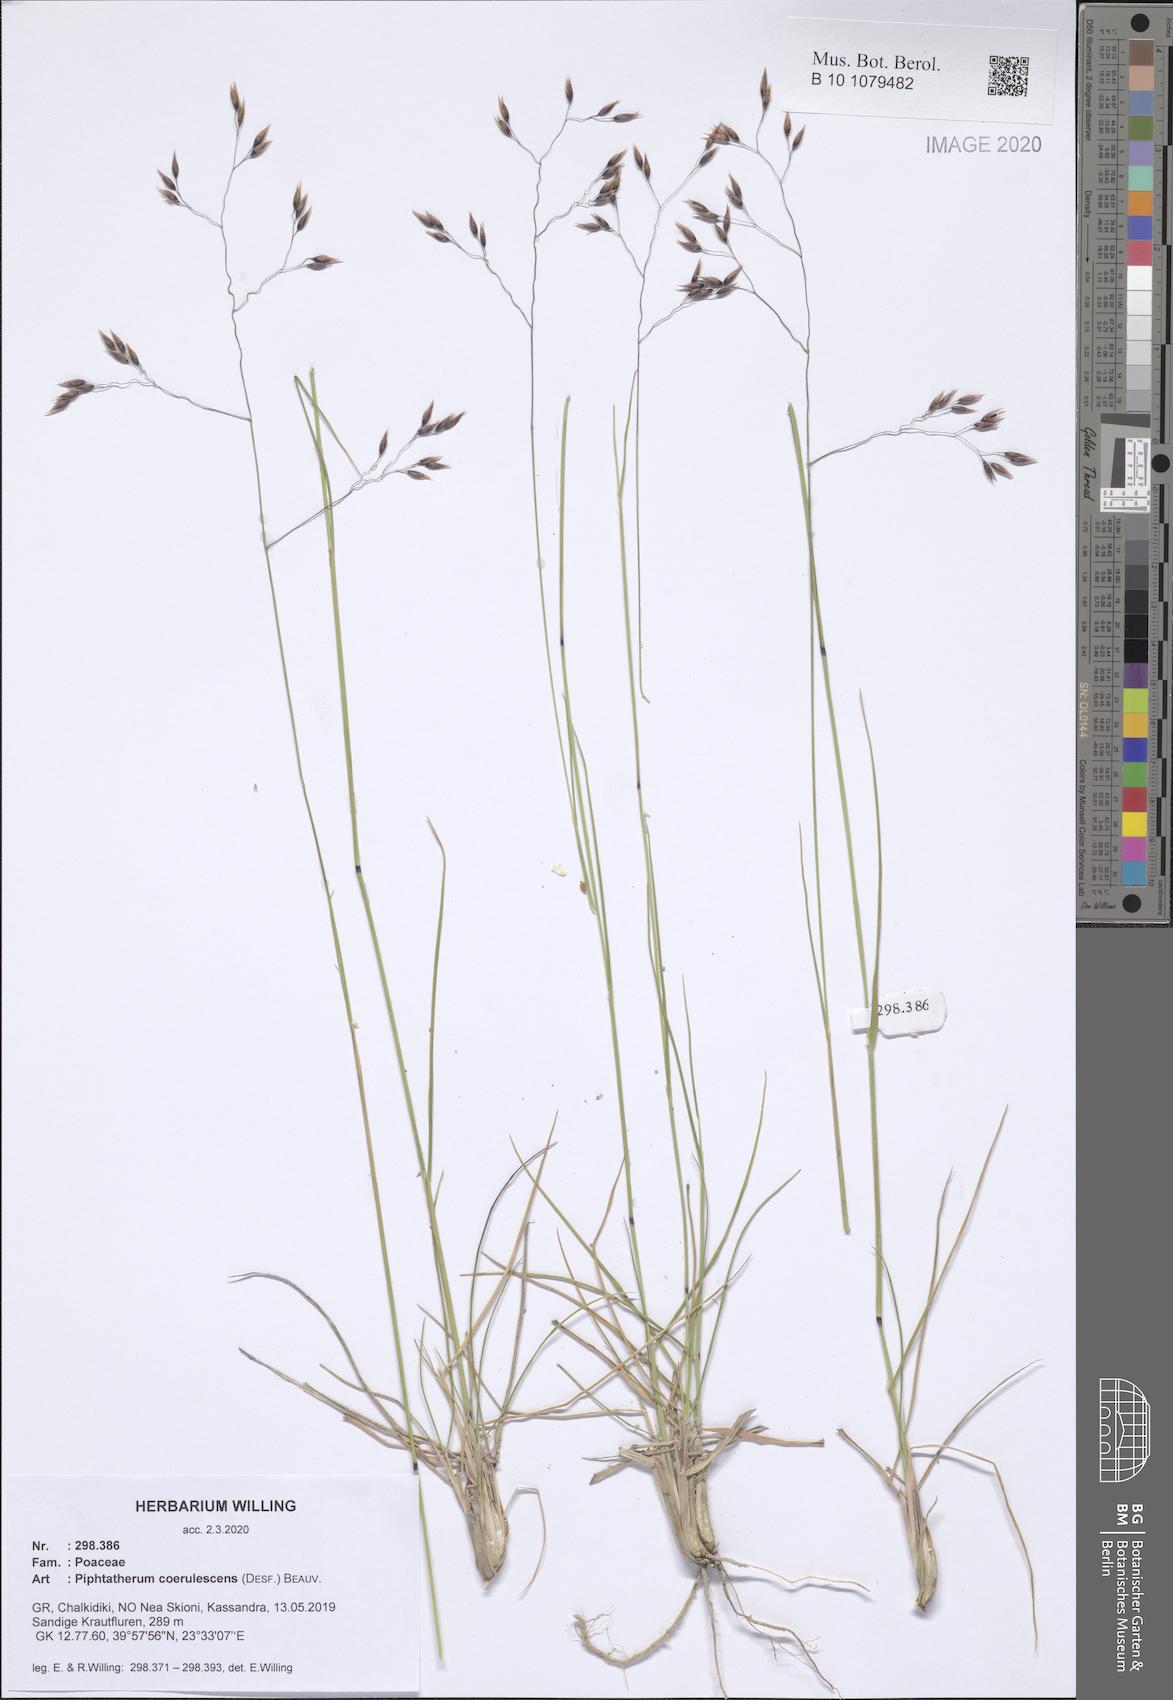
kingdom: Plantae
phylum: Tracheophyta
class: Liliopsida
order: Poales
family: Poaceae
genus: Piptatherum
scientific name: Piptatherum coerulescens
